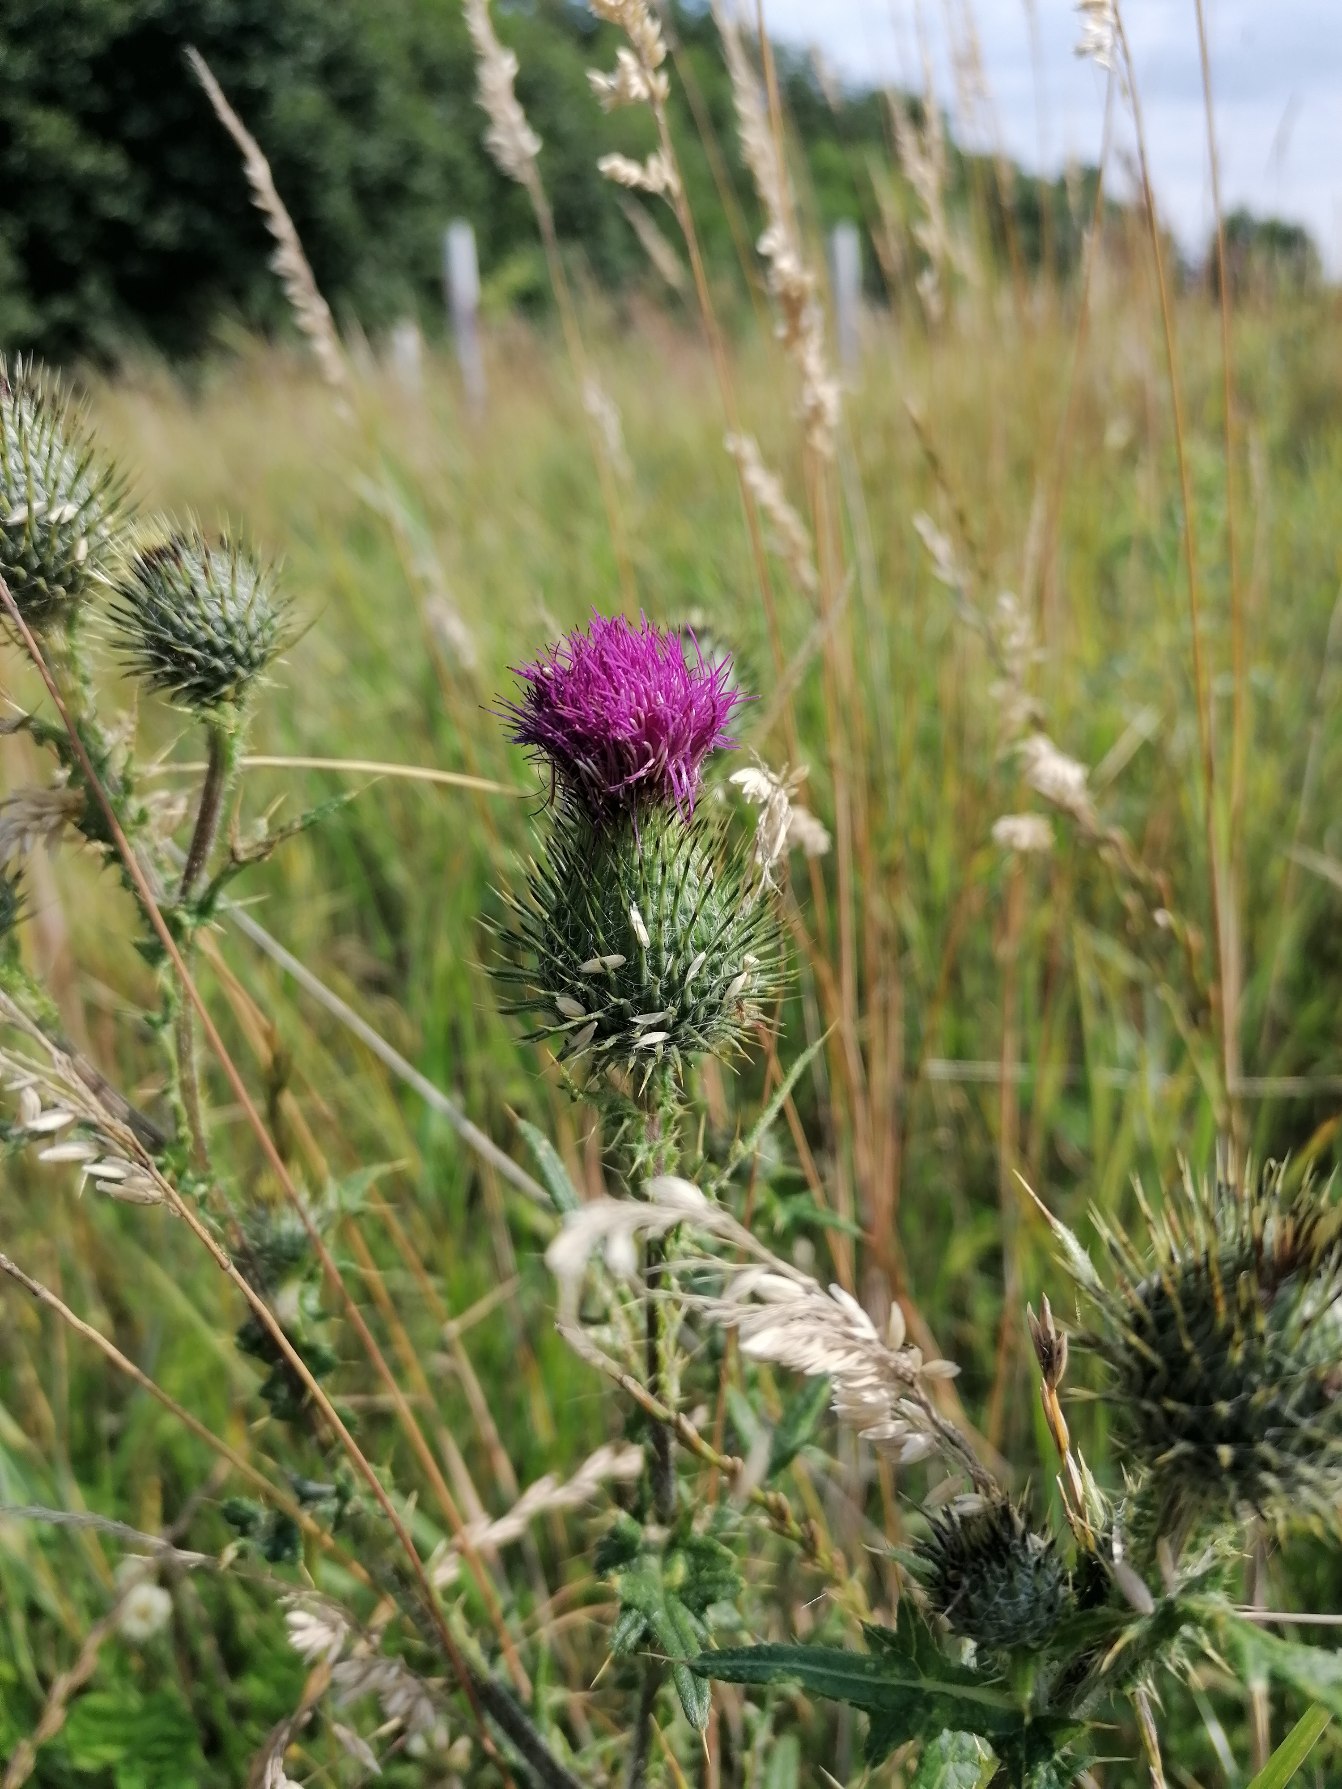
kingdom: Plantae
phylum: Tracheophyta
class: Magnoliopsida
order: Asterales
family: Asteraceae
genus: Cirsium
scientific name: Cirsium vulgare
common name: Horse-tidsel
